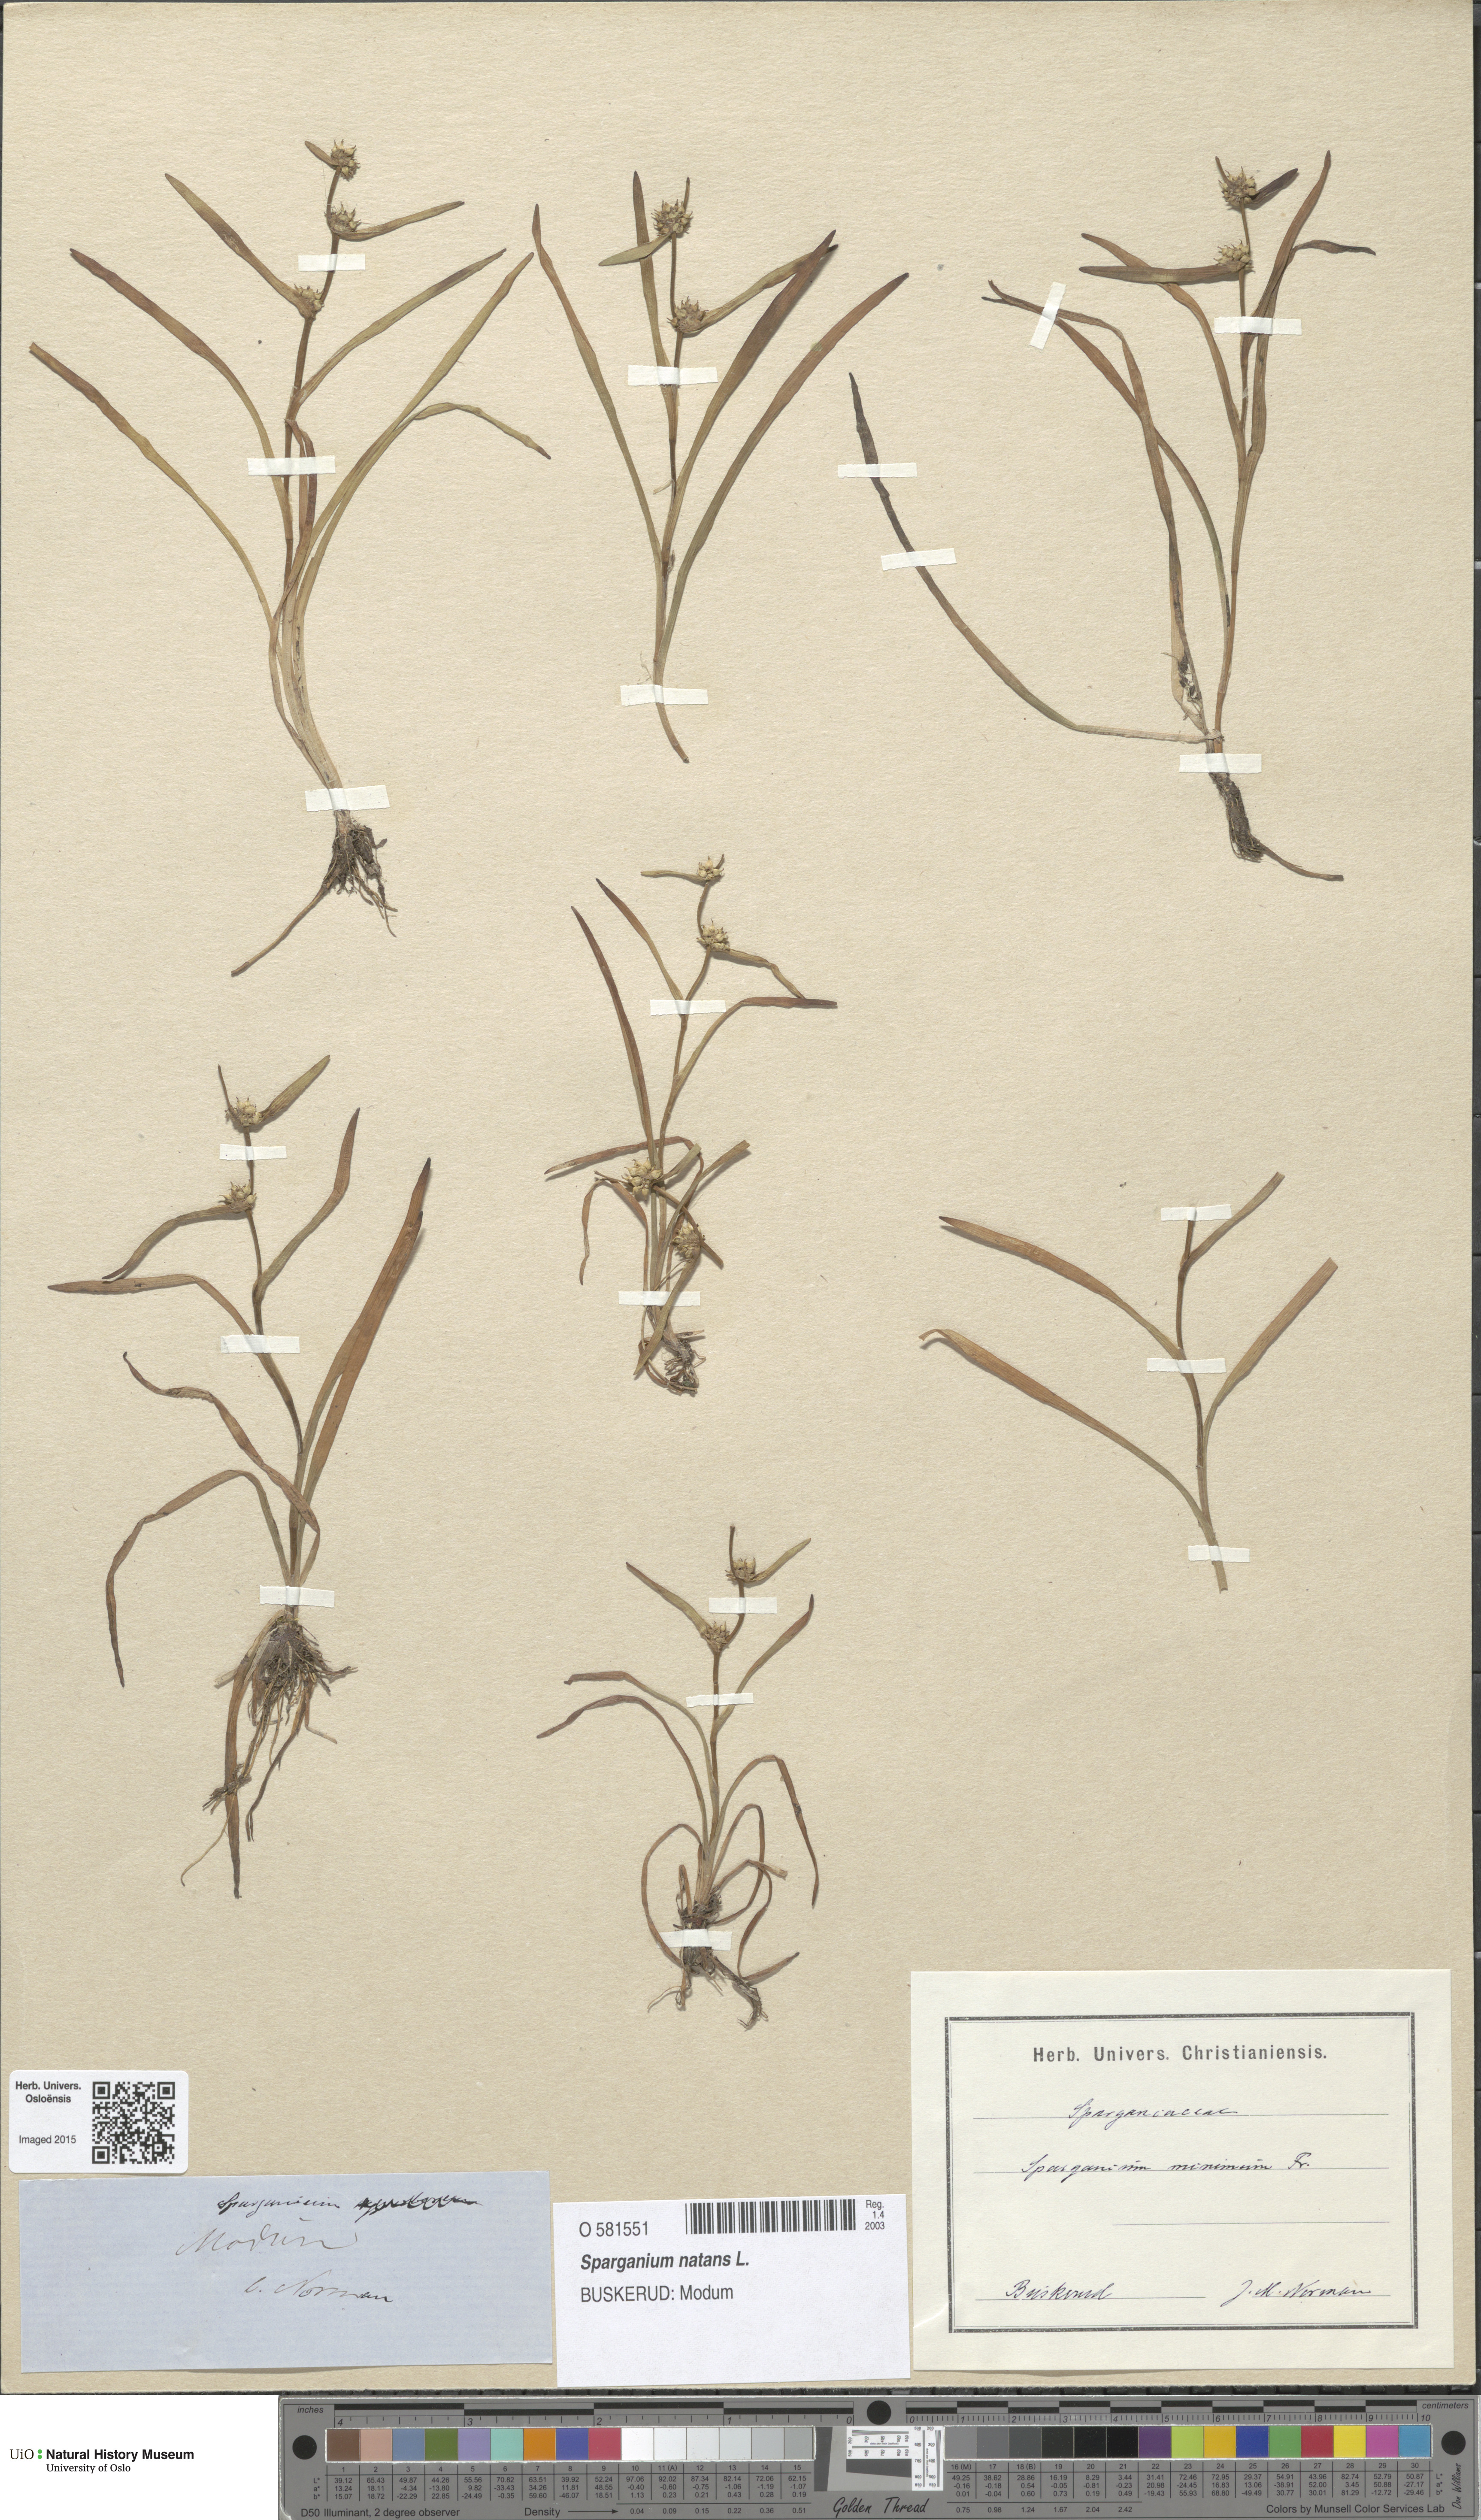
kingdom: Plantae
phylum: Tracheophyta
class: Liliopsida
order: Poales
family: Typhaceae
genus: Sparganium
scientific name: Sparganium natans
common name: Least bur-reed
